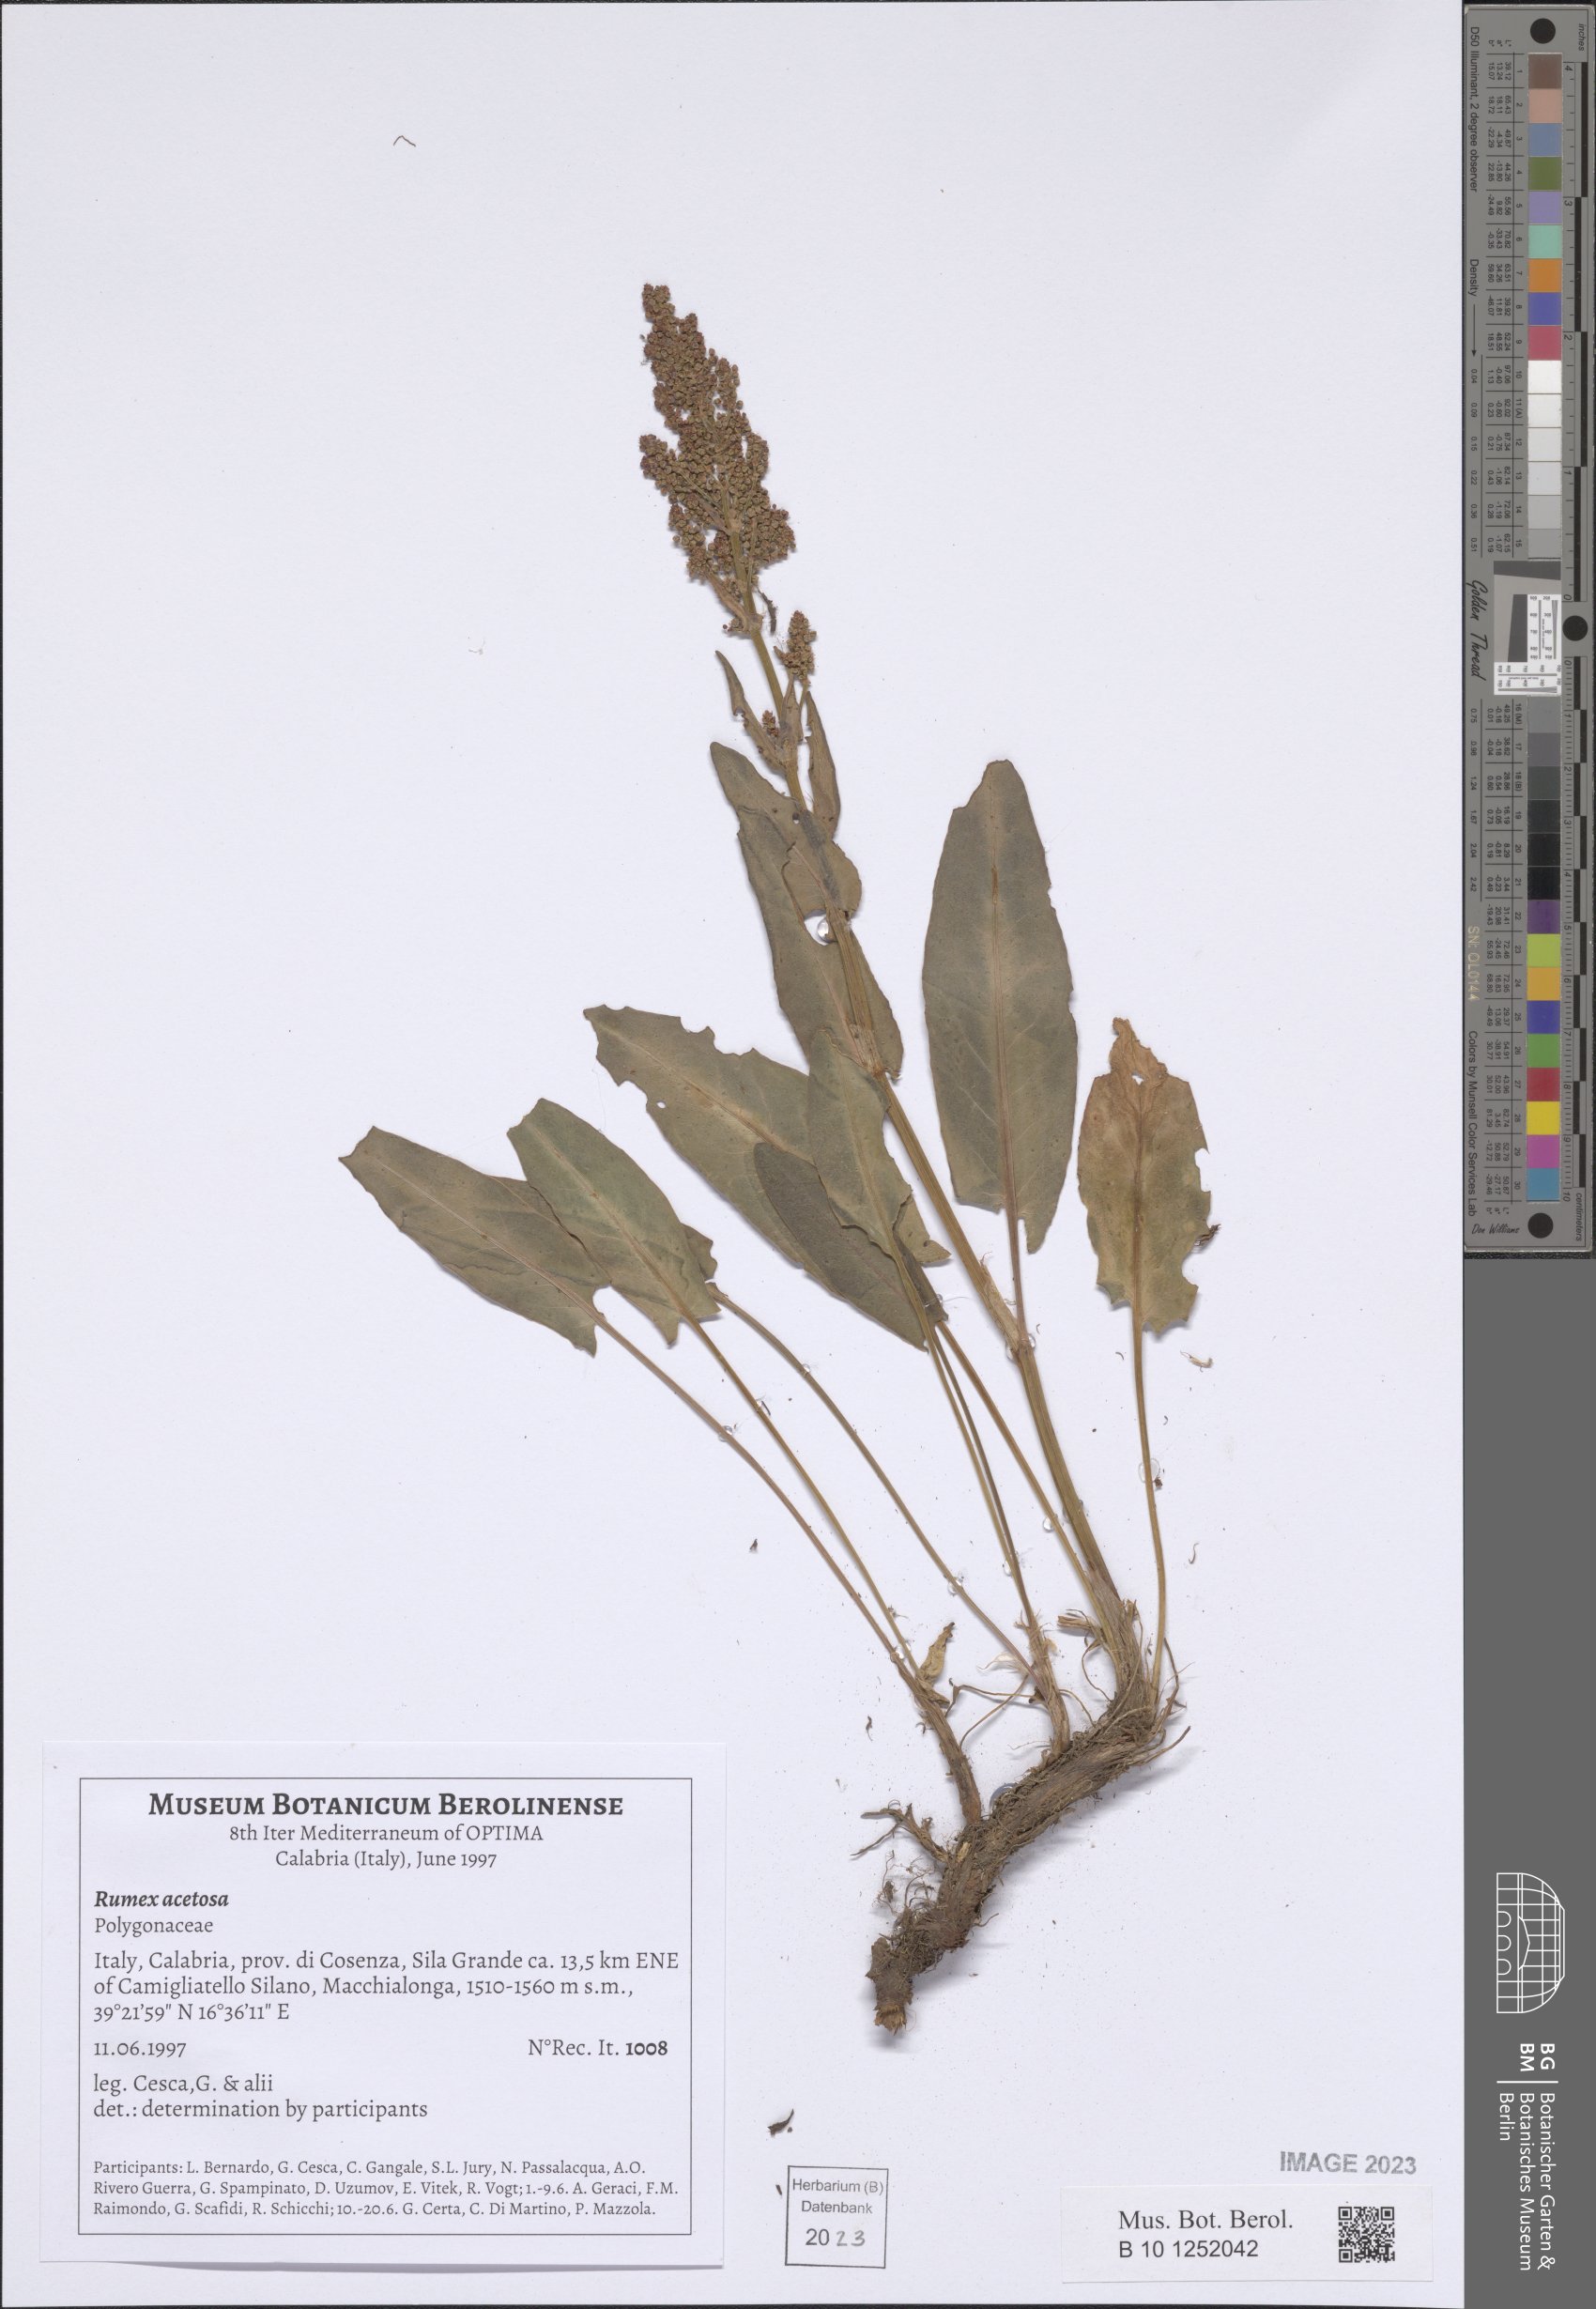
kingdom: Plantae
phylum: Tracheophyta
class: Magnoliopsida
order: Caryophyllales
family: Polygonaceae
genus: Rumex
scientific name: Rumex acetosa
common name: Garden sorrel
